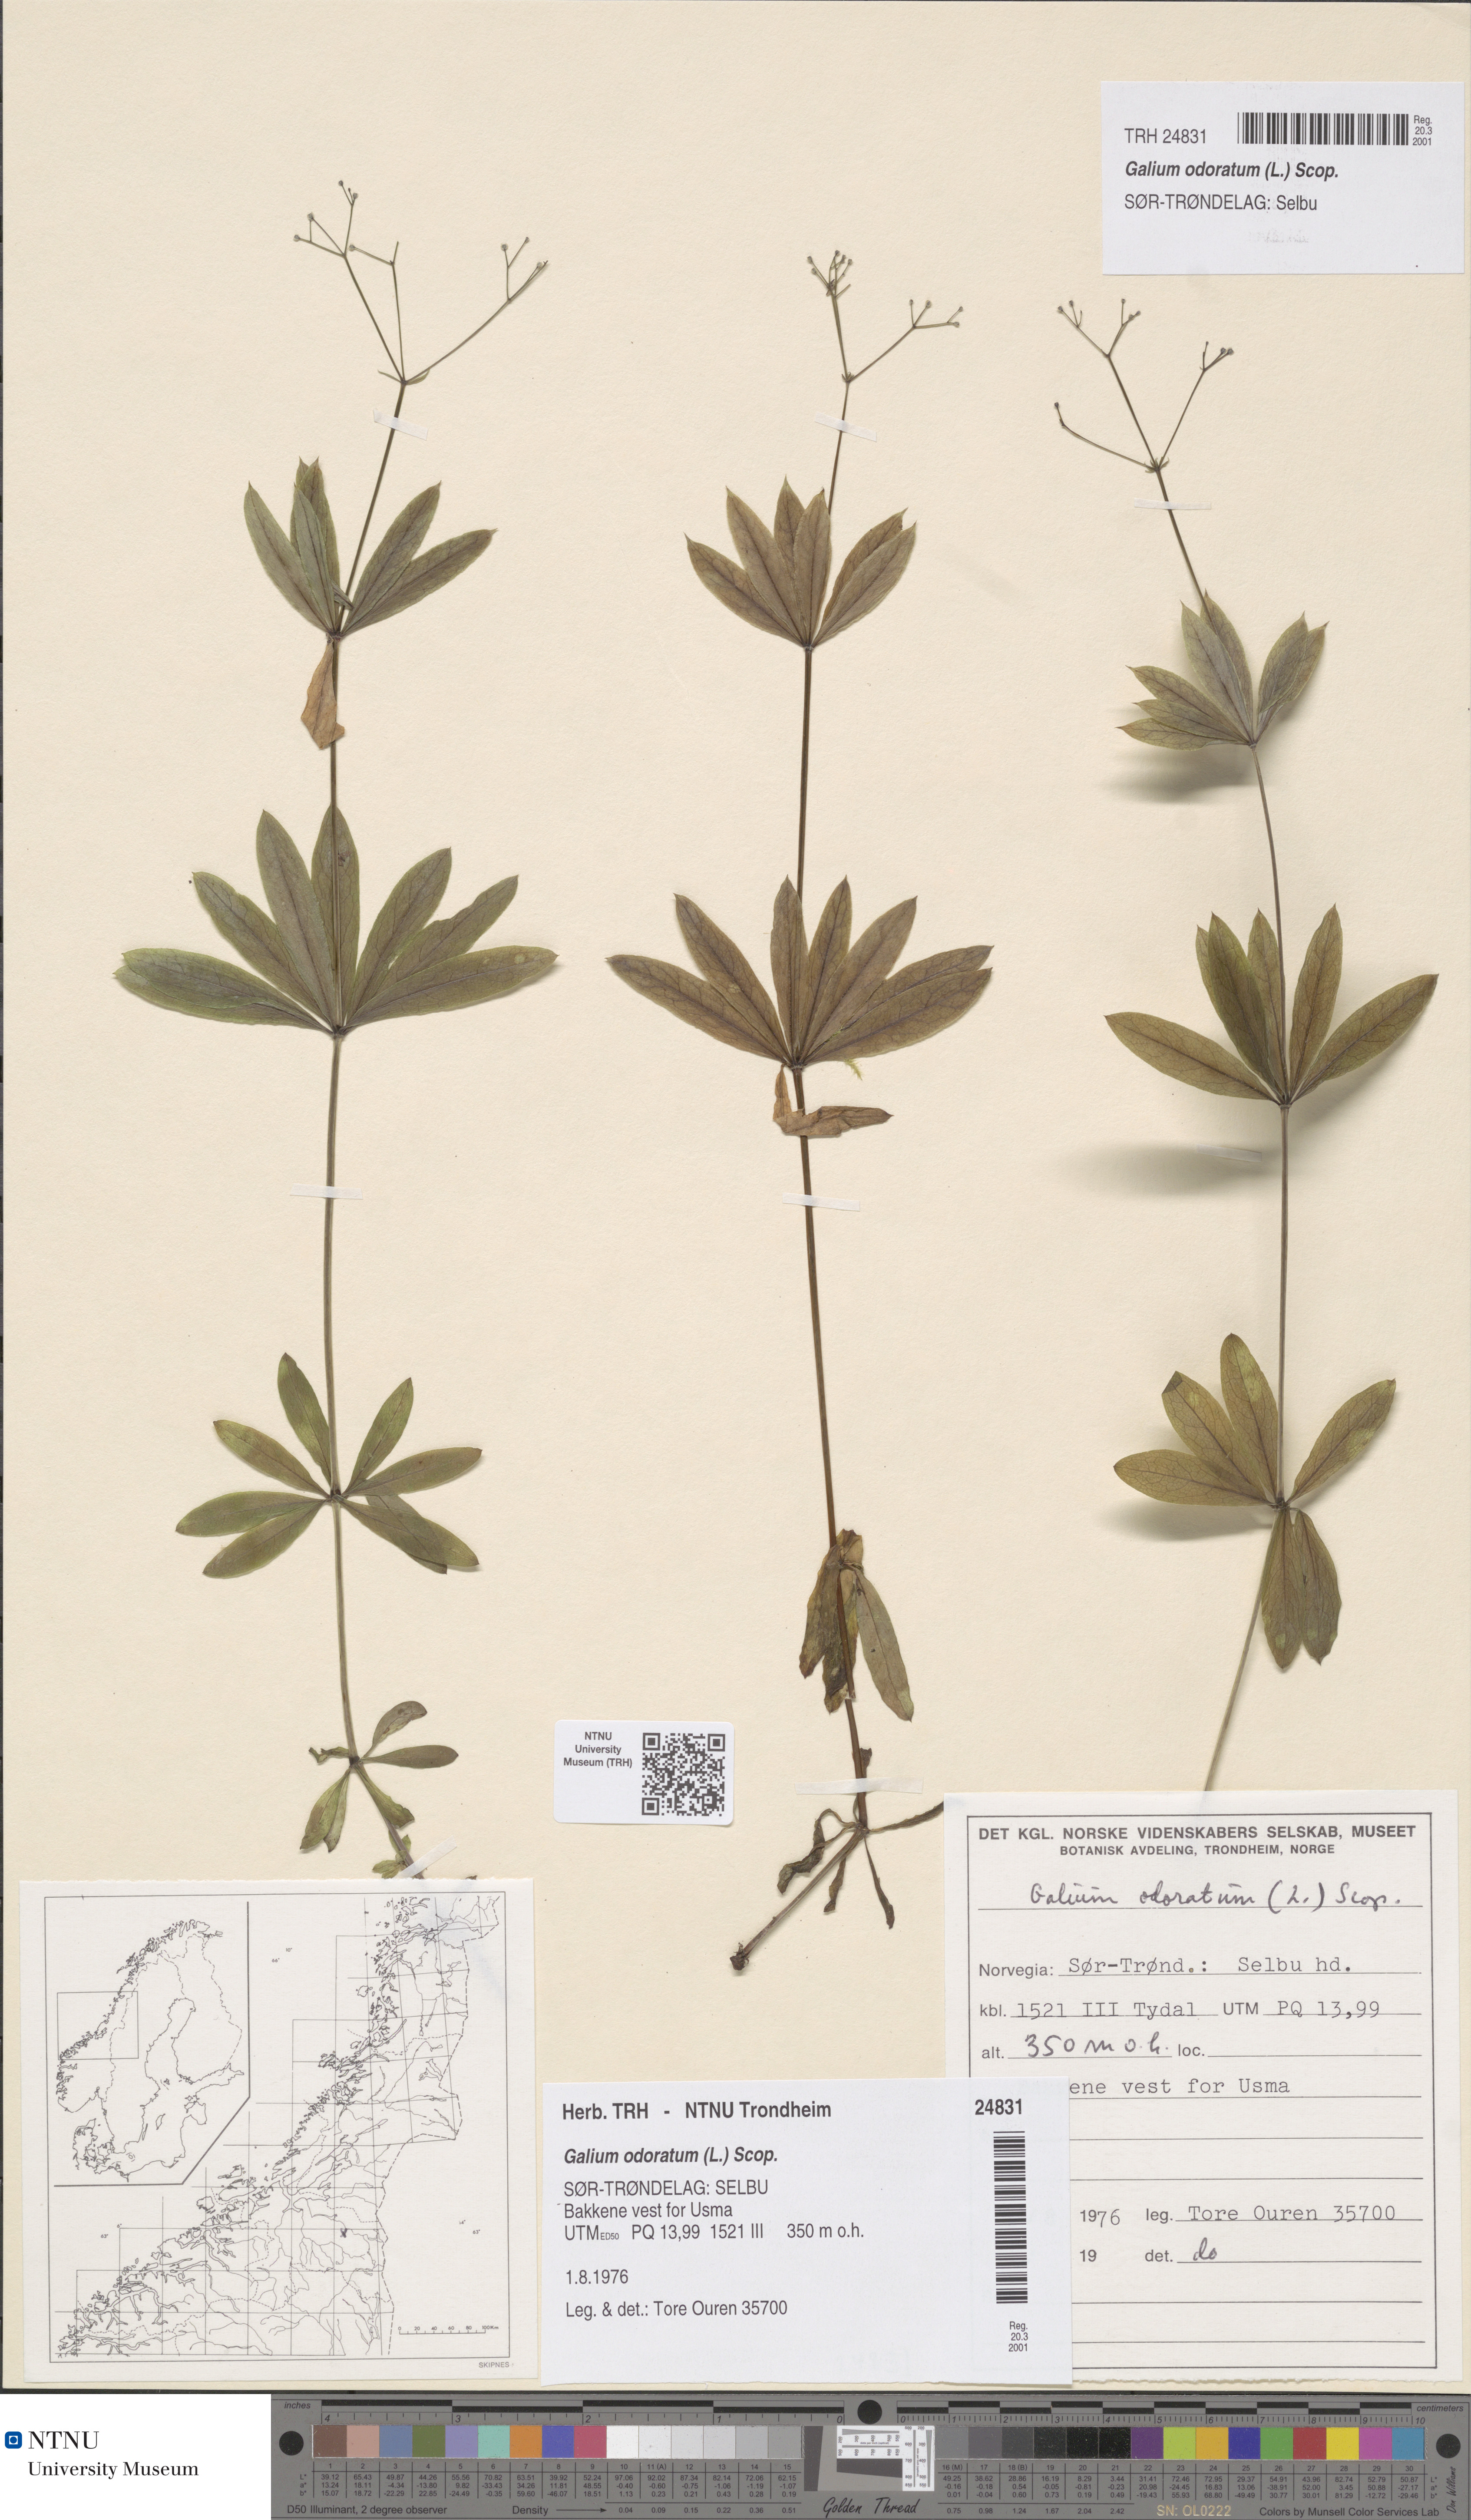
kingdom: Plantae
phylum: Tracheophyta
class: Magnoliopsida
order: Gentianales
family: Rubiaceae
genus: Galium
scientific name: Galium odoratum
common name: Sweet woodruff
